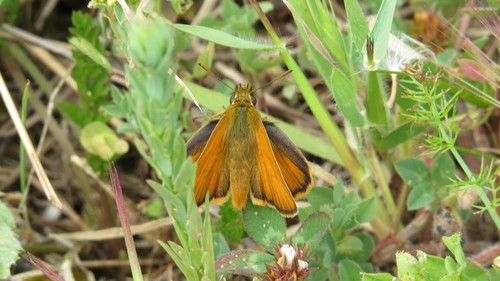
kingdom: Animalia
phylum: Arthropoda
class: Insecta
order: Lepidoptera
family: Hesperiidae
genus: Thymelicus
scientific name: Thymelicus sylvestris
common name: Small skipper
